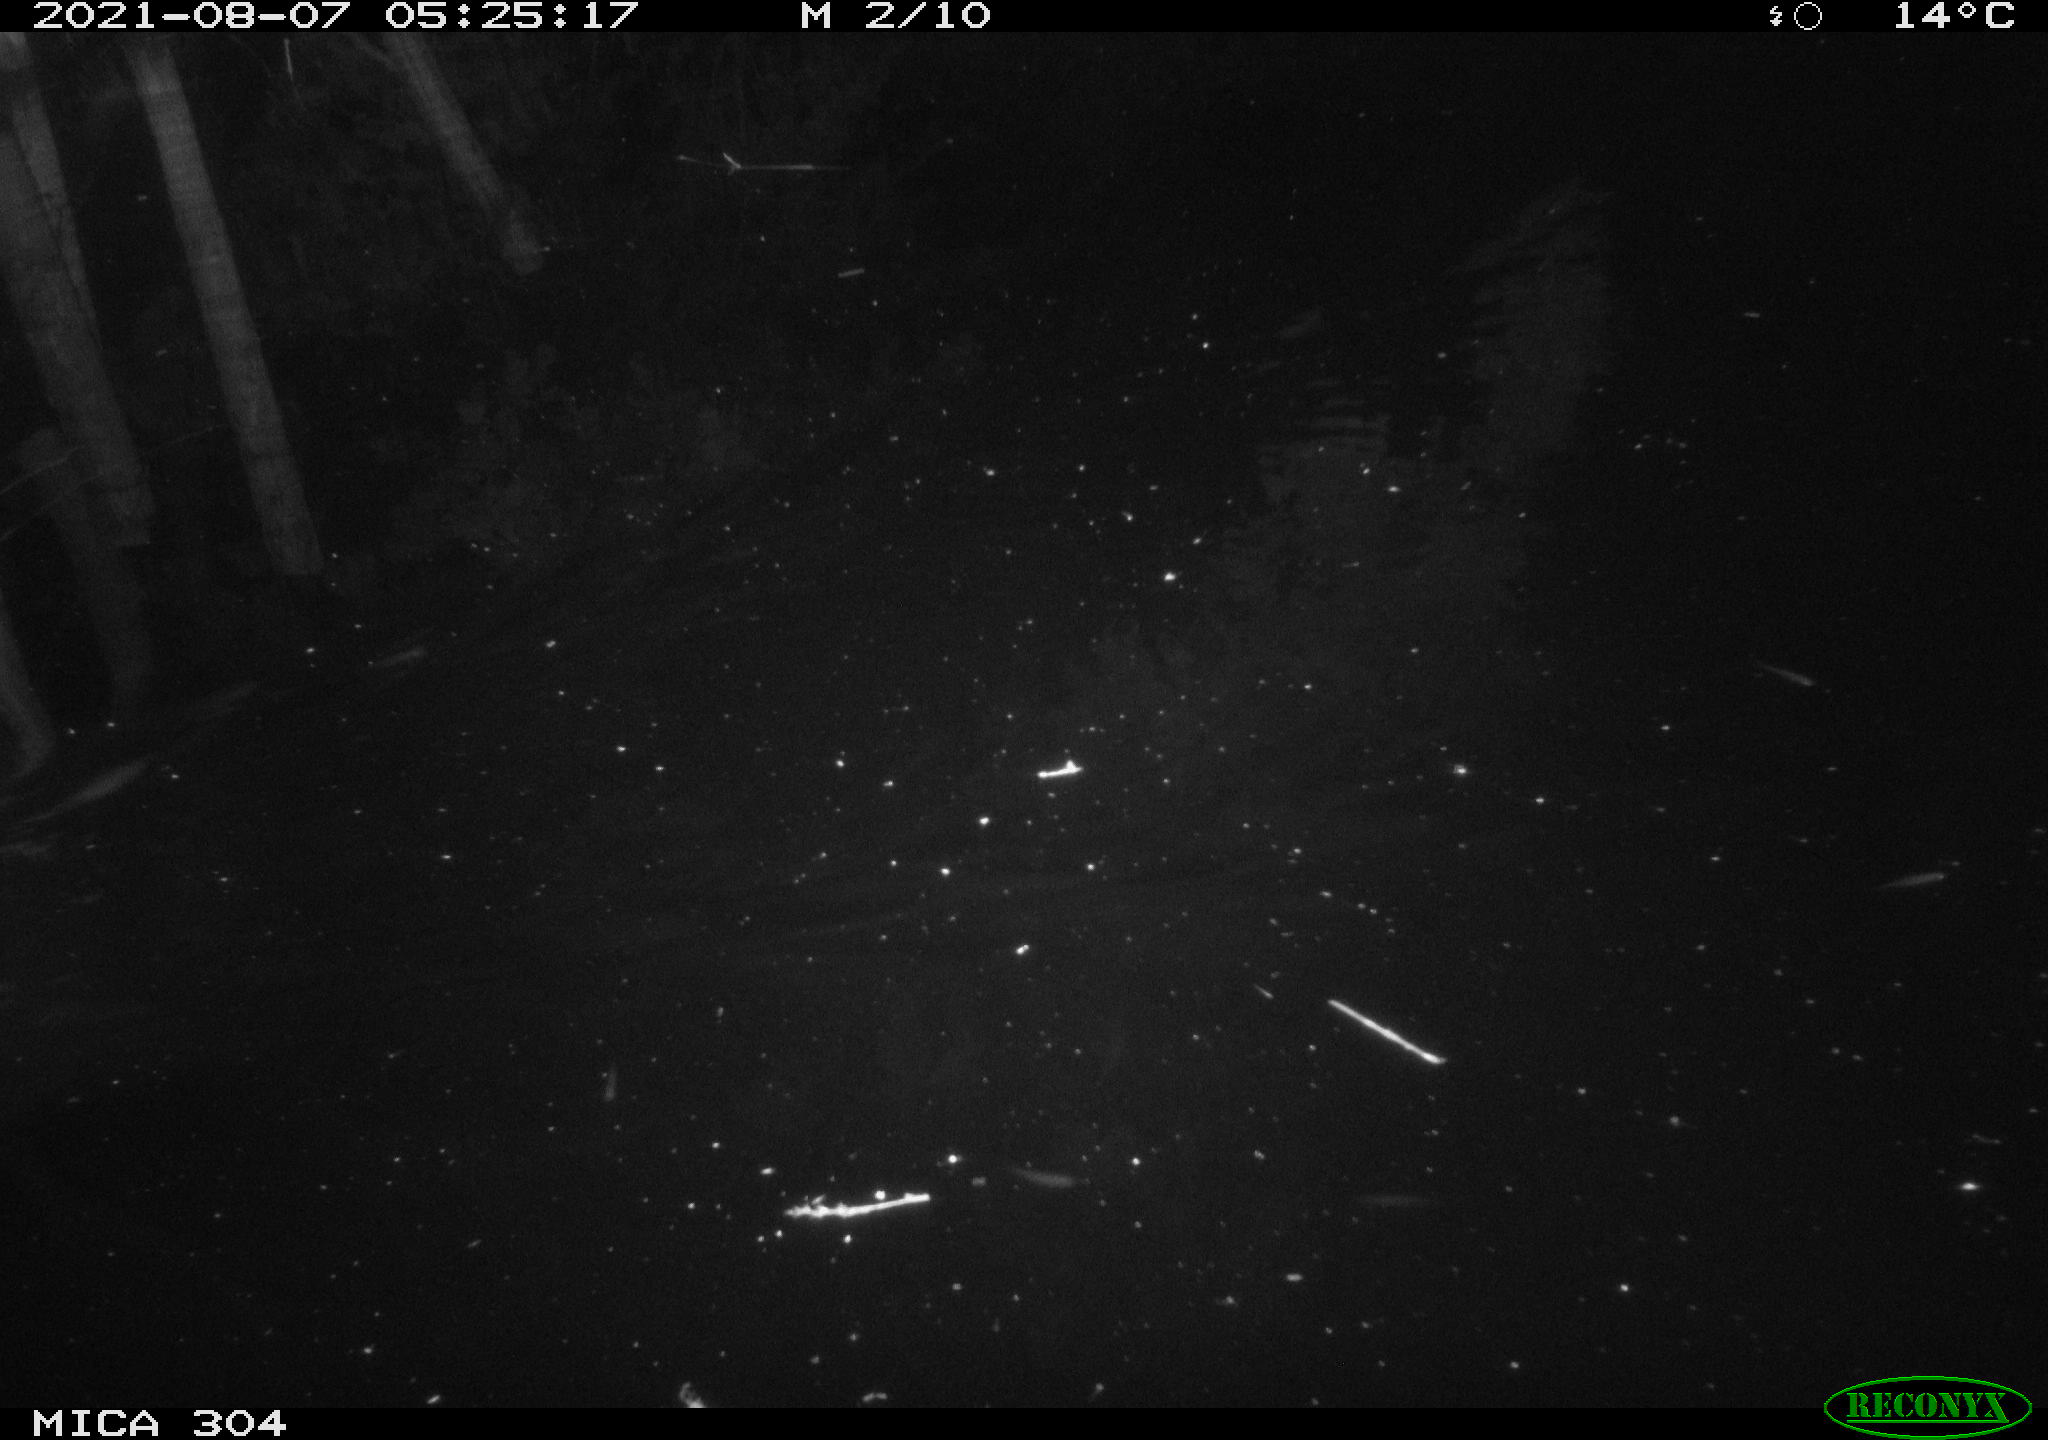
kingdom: Animalia
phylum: Chordata
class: Mammalia
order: Rodentia
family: Muridae
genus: Rattus
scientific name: Rattus norvegicus
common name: Brown rat
